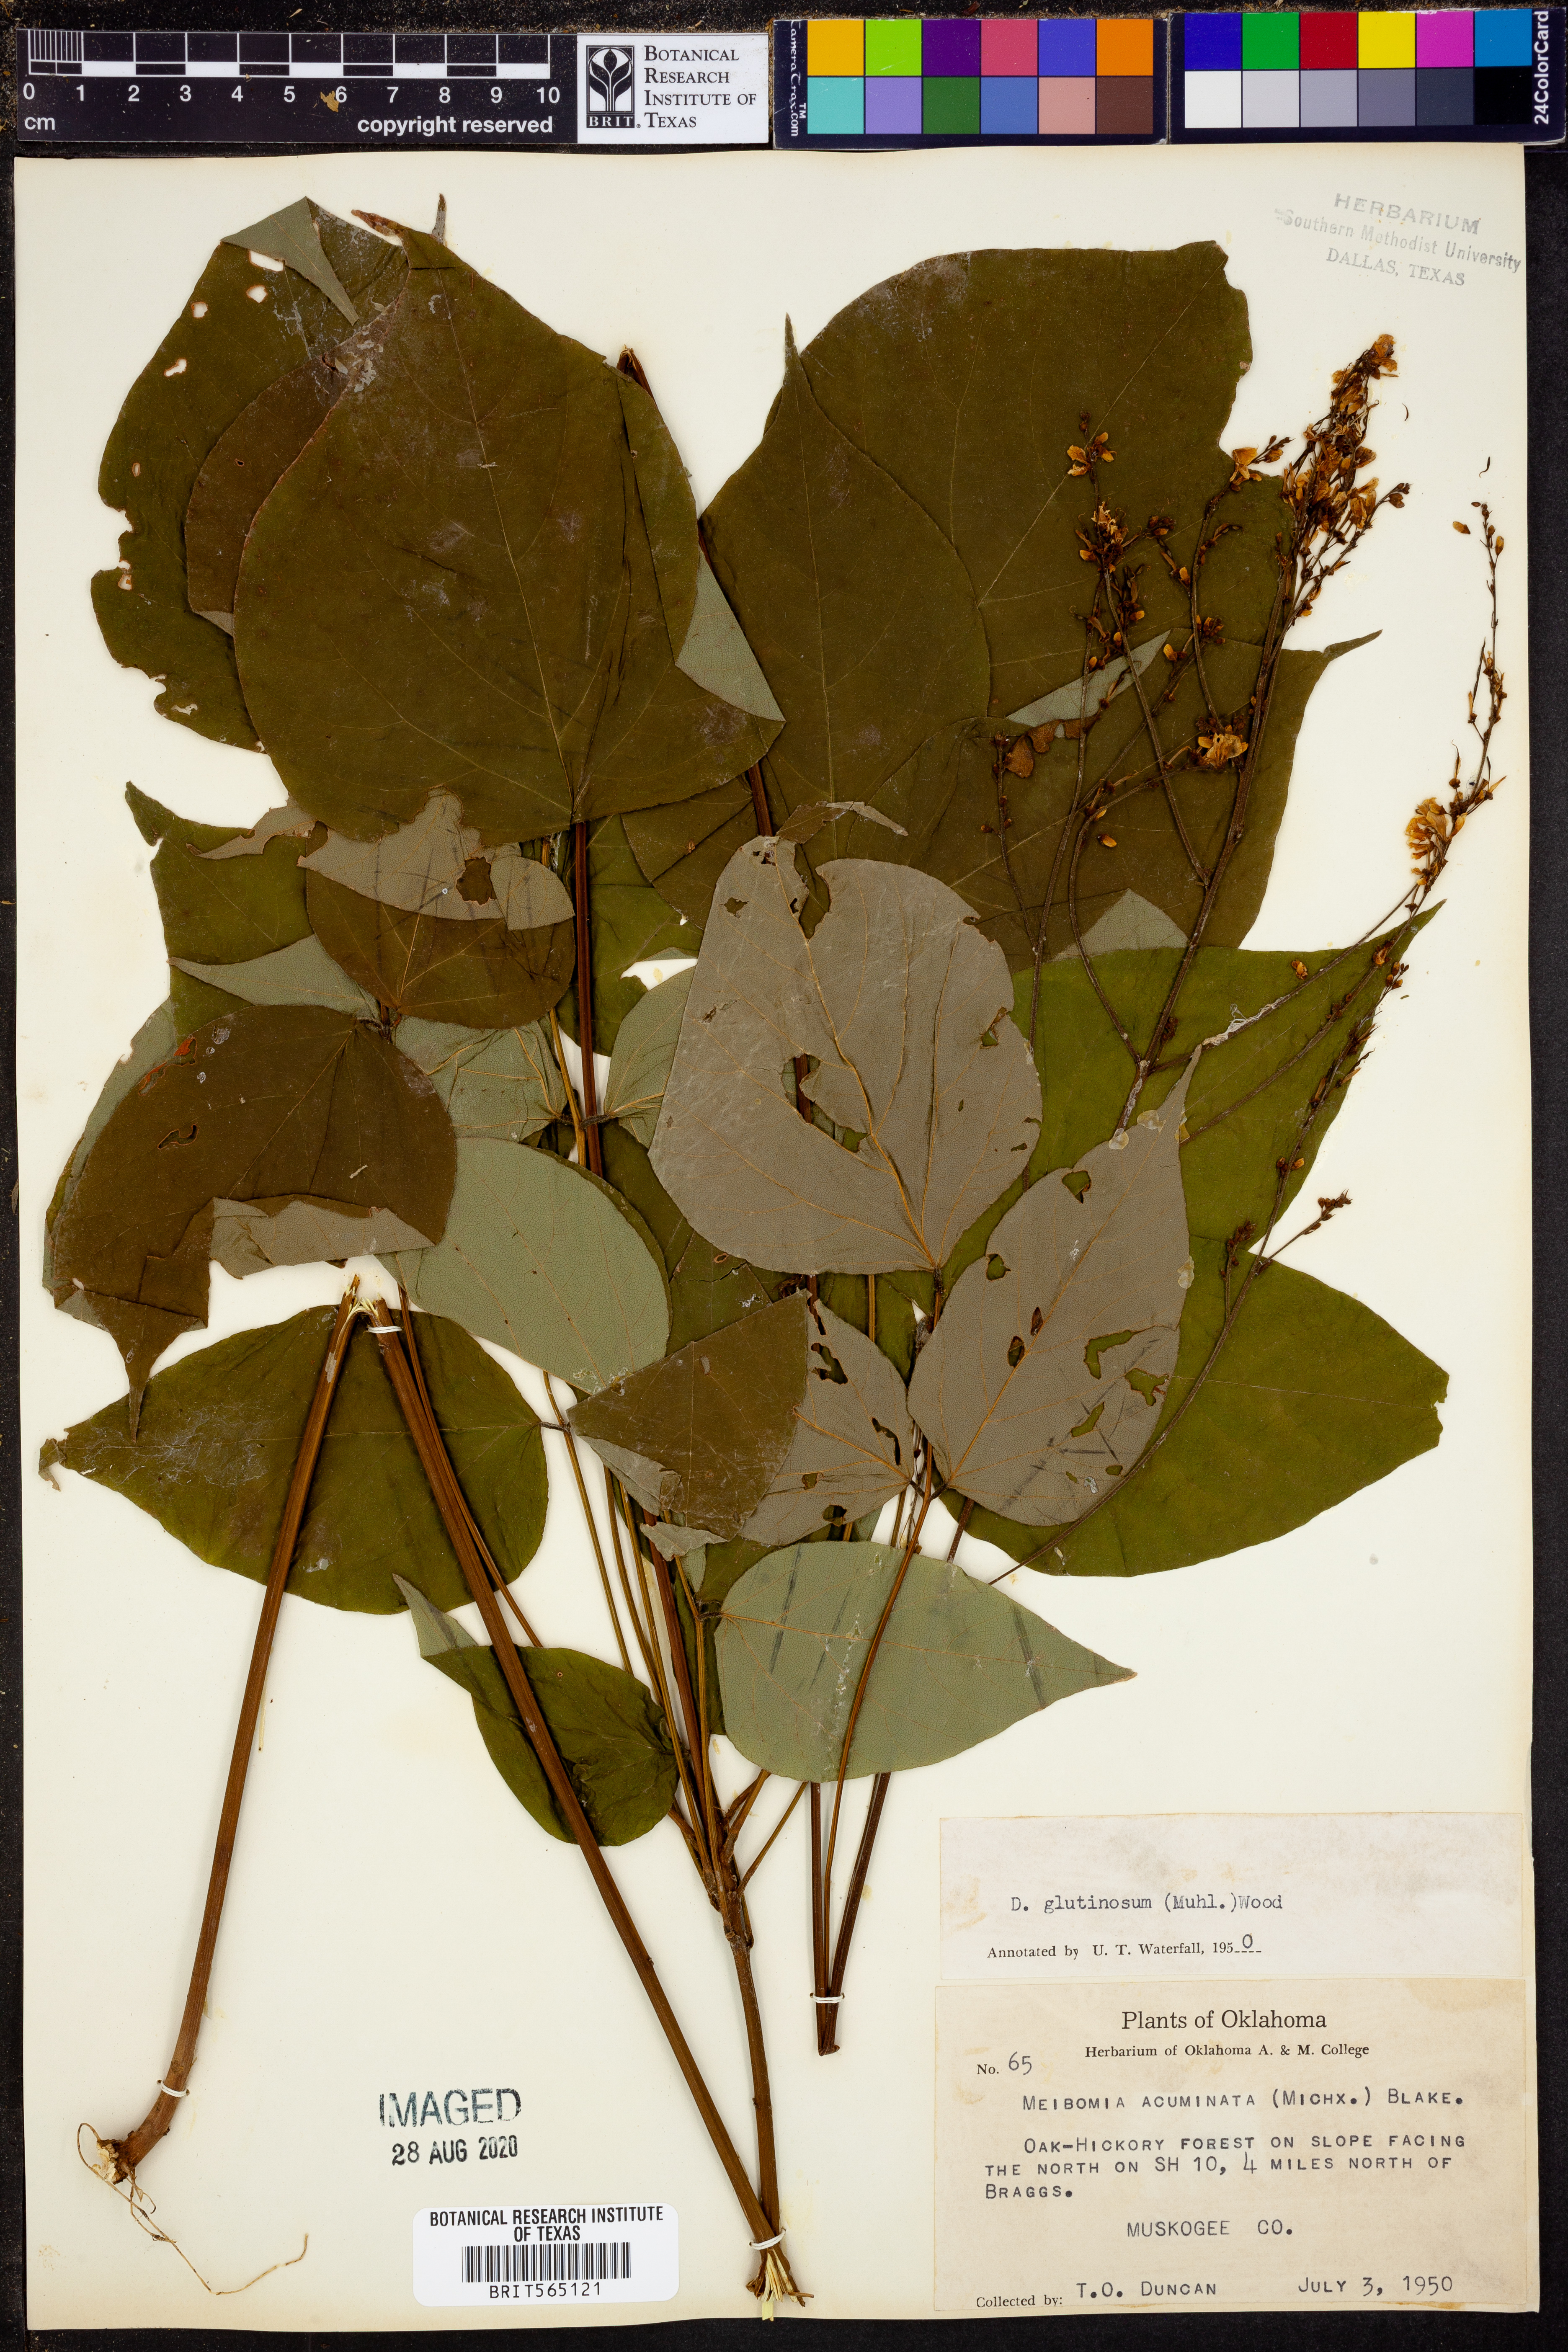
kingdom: Plantae
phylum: Tracheophyta
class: Magnoliopsida
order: Fabales
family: Fabaceae
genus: Hylodesmum
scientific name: Hylodesmum glutinosum
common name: Clustered-leaved tick-trefoil
